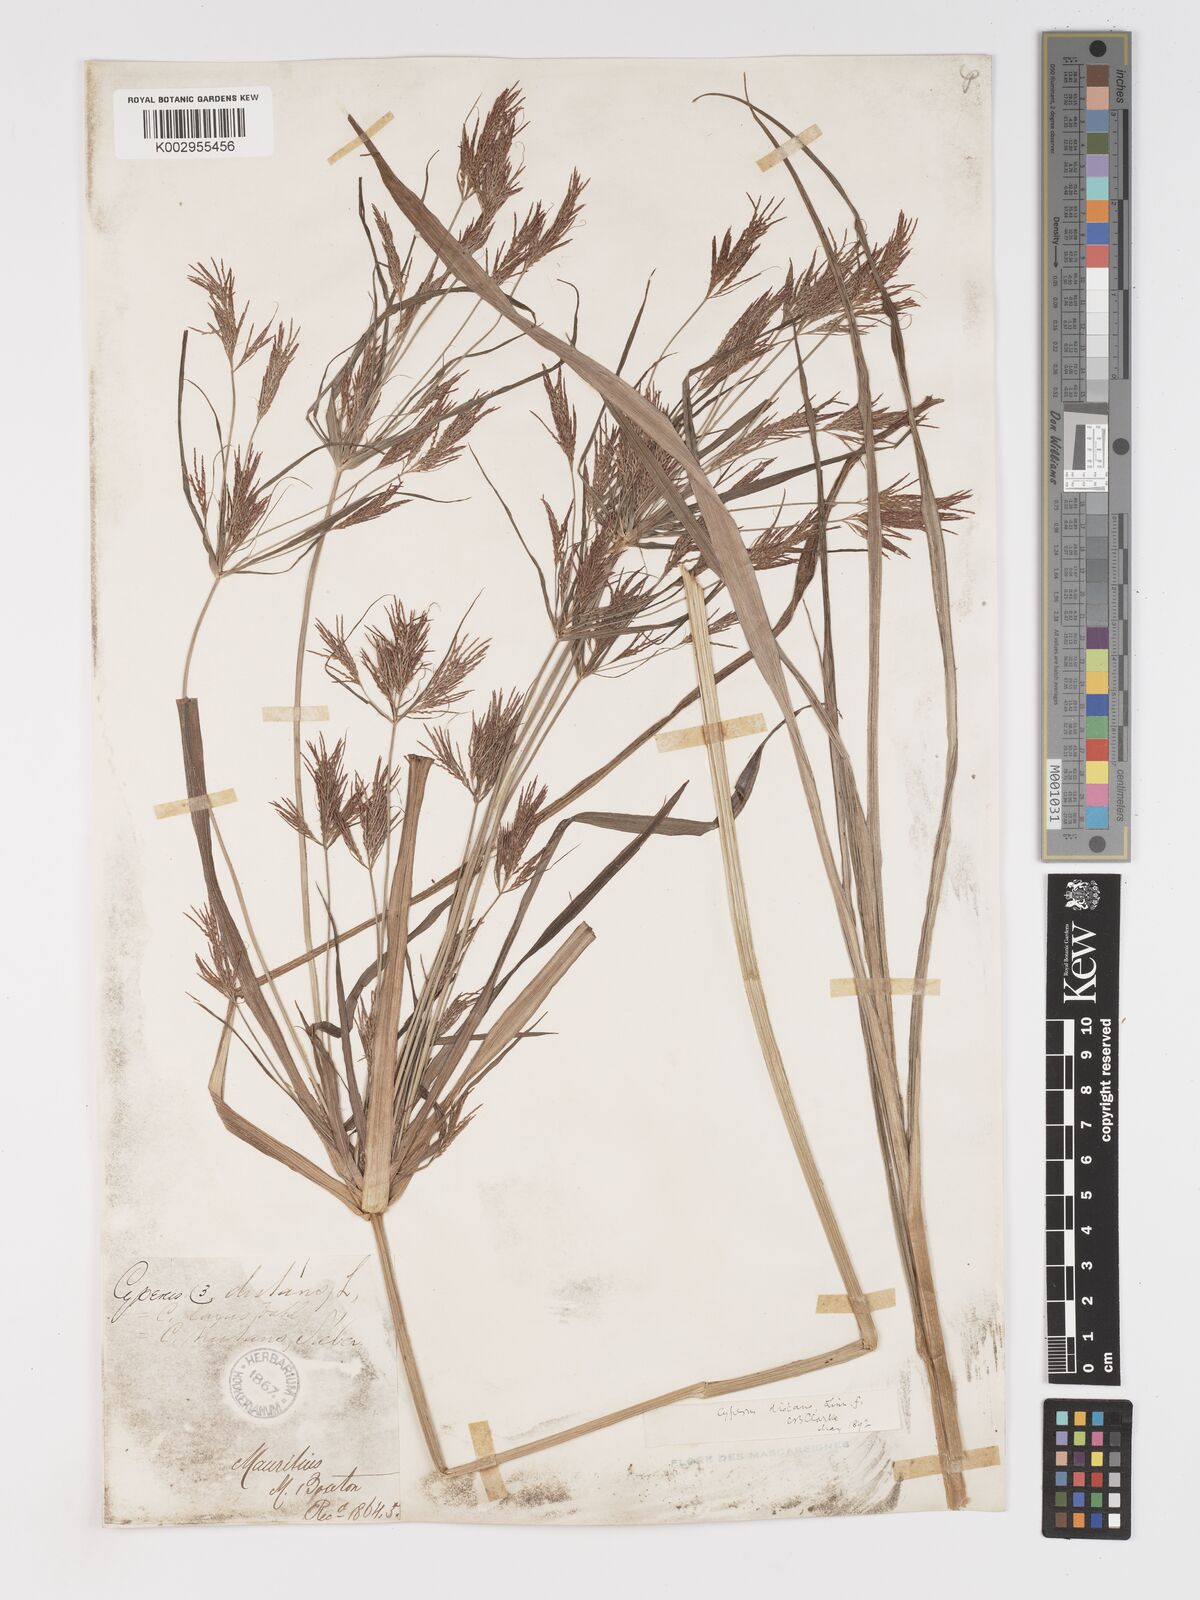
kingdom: Plantae
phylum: Tracheophyta
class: Liliopsida
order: Poales
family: Cyperaceae
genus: Cyperus
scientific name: Cyperus distans
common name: Slender cyperus
